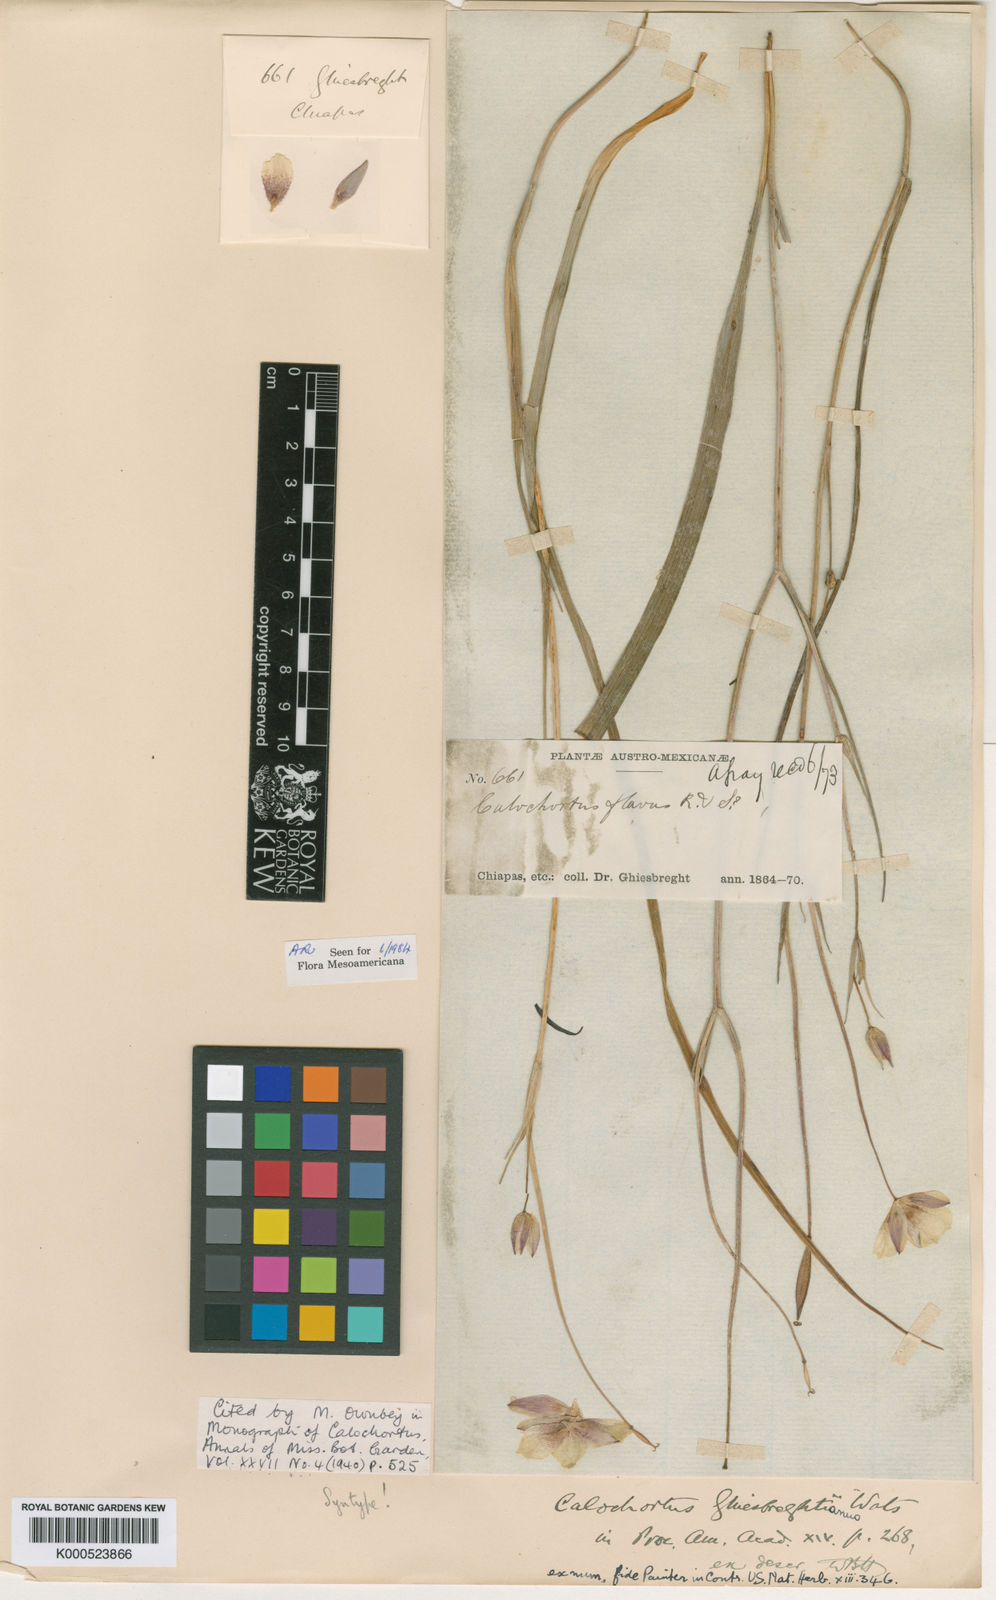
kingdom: Plantae
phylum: Tracheophyta
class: Liliopsida
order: Liliales
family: Liliaceae
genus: Calochortus
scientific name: Calochortus ghiesbreghtii
